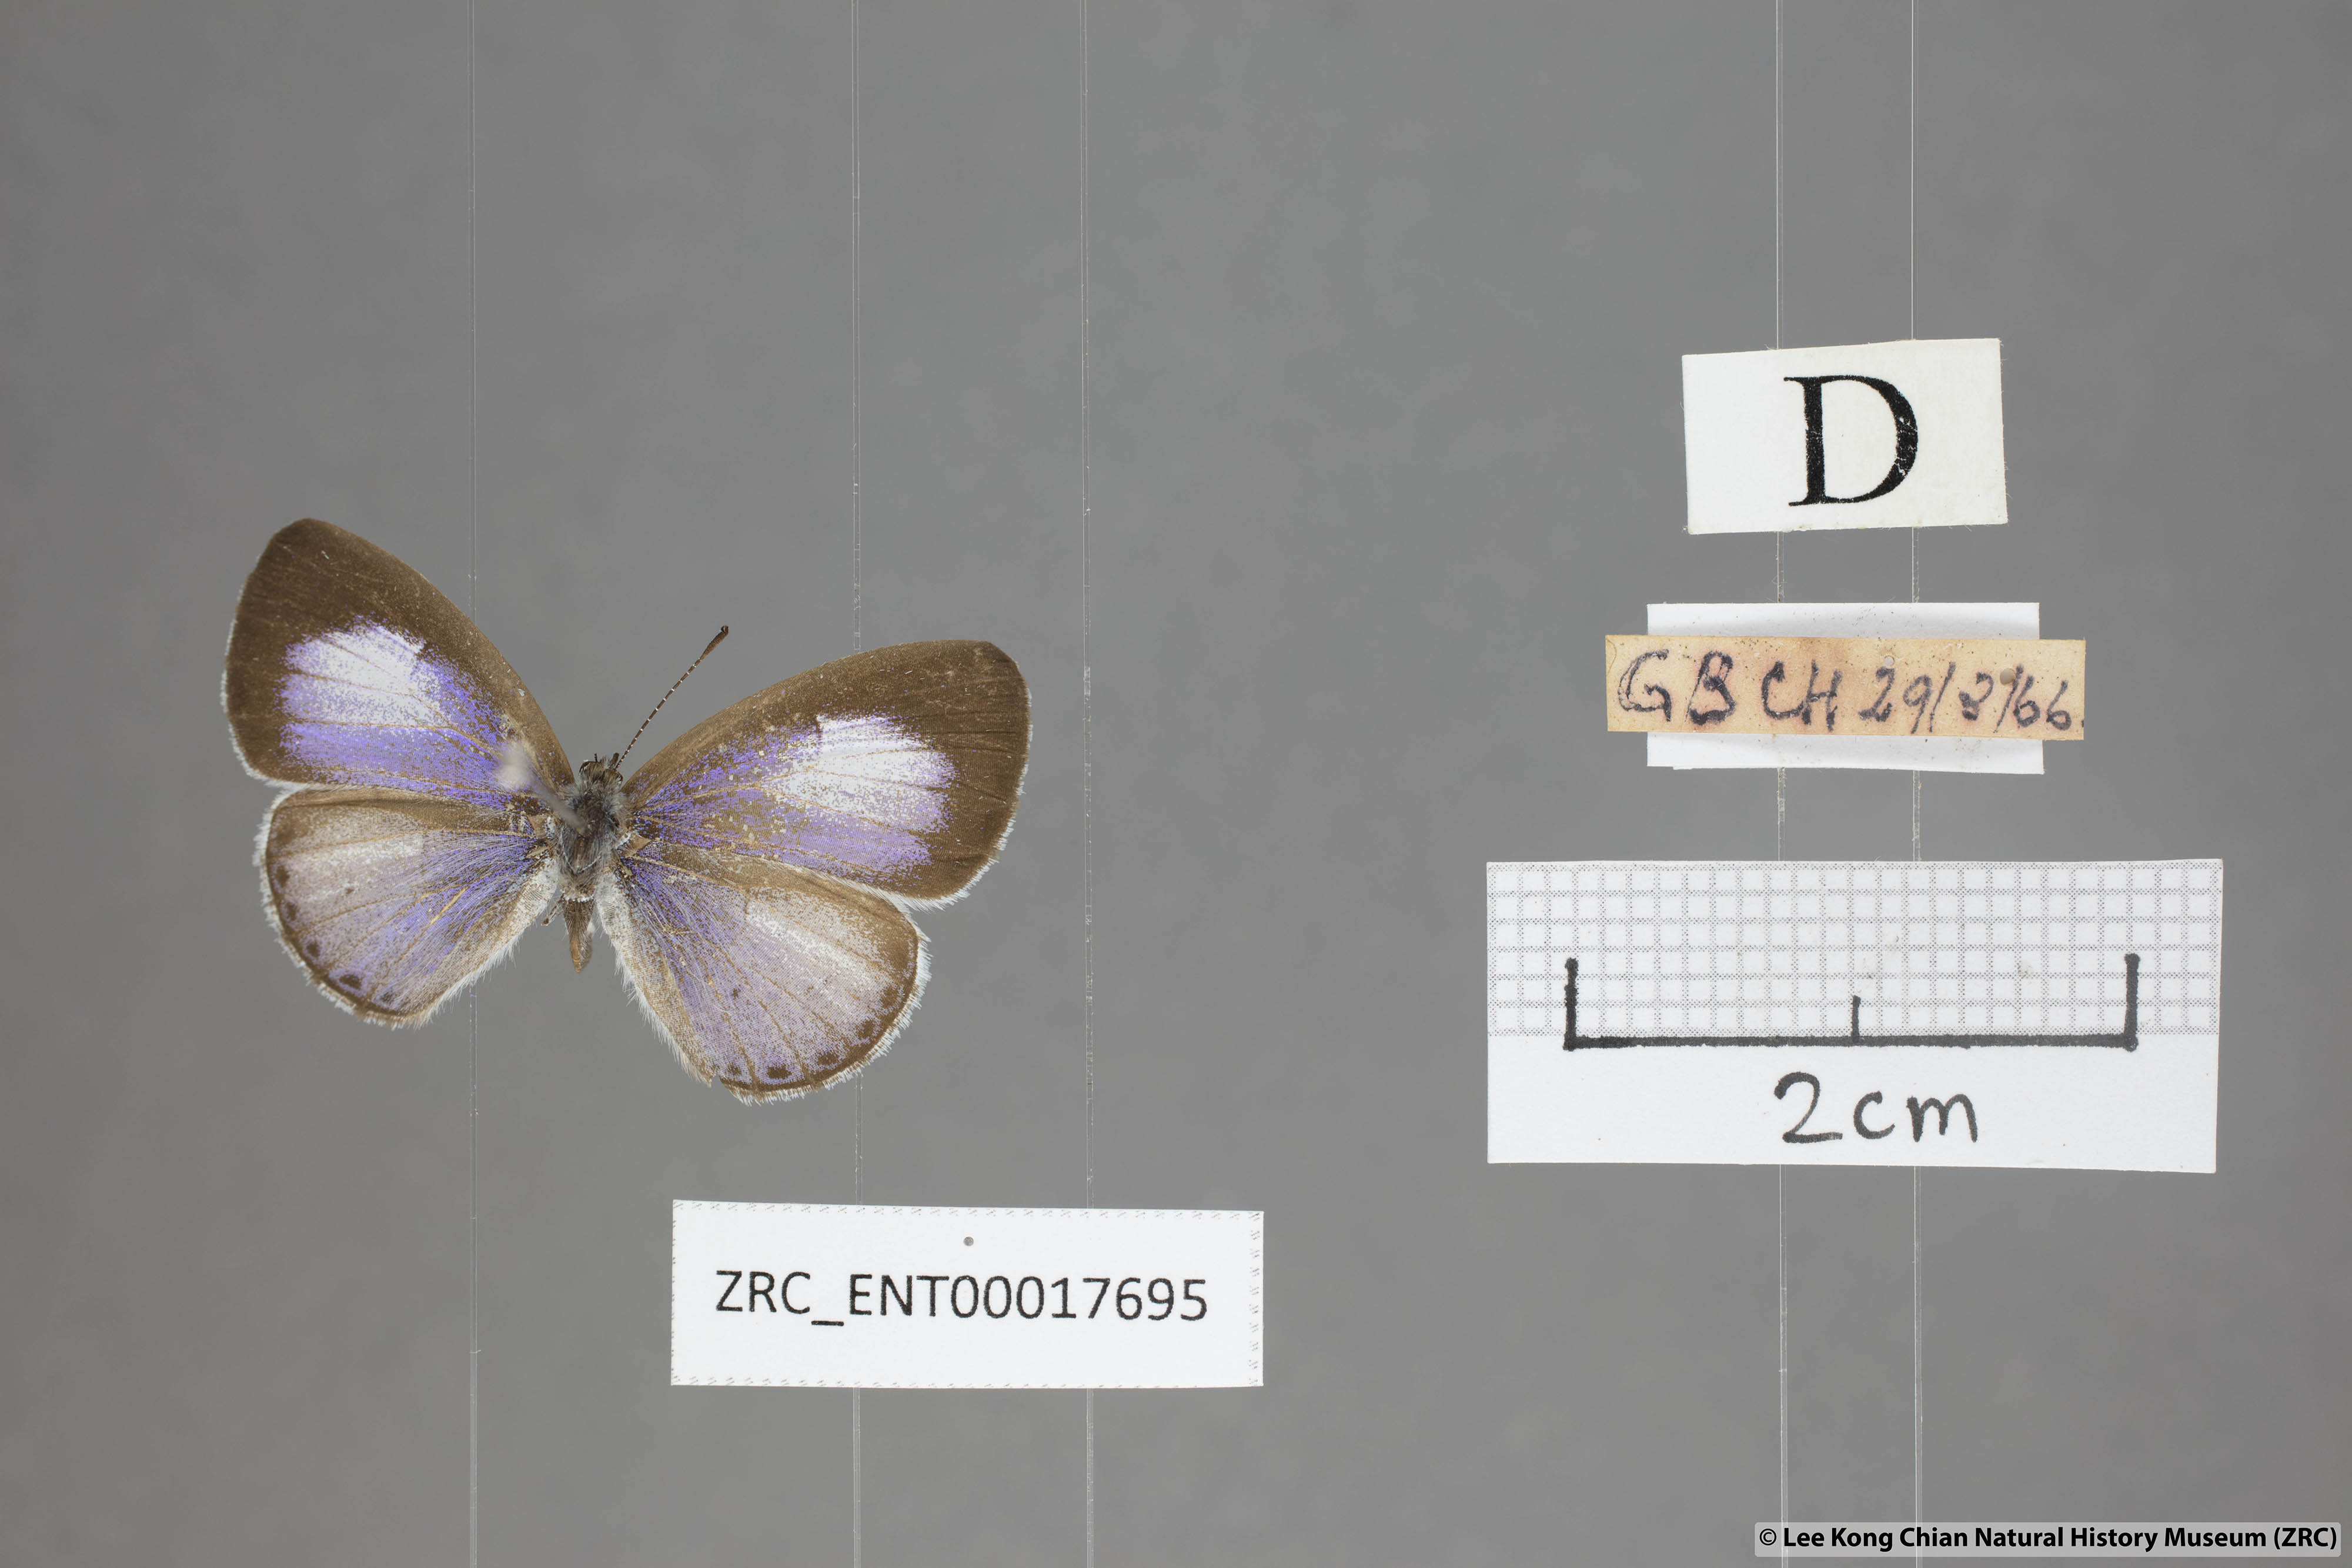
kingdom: Animalia
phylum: Arthropoda
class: Insecta
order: Lepidoptera
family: Lycaenidae
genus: Udara
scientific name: Udara camenae
